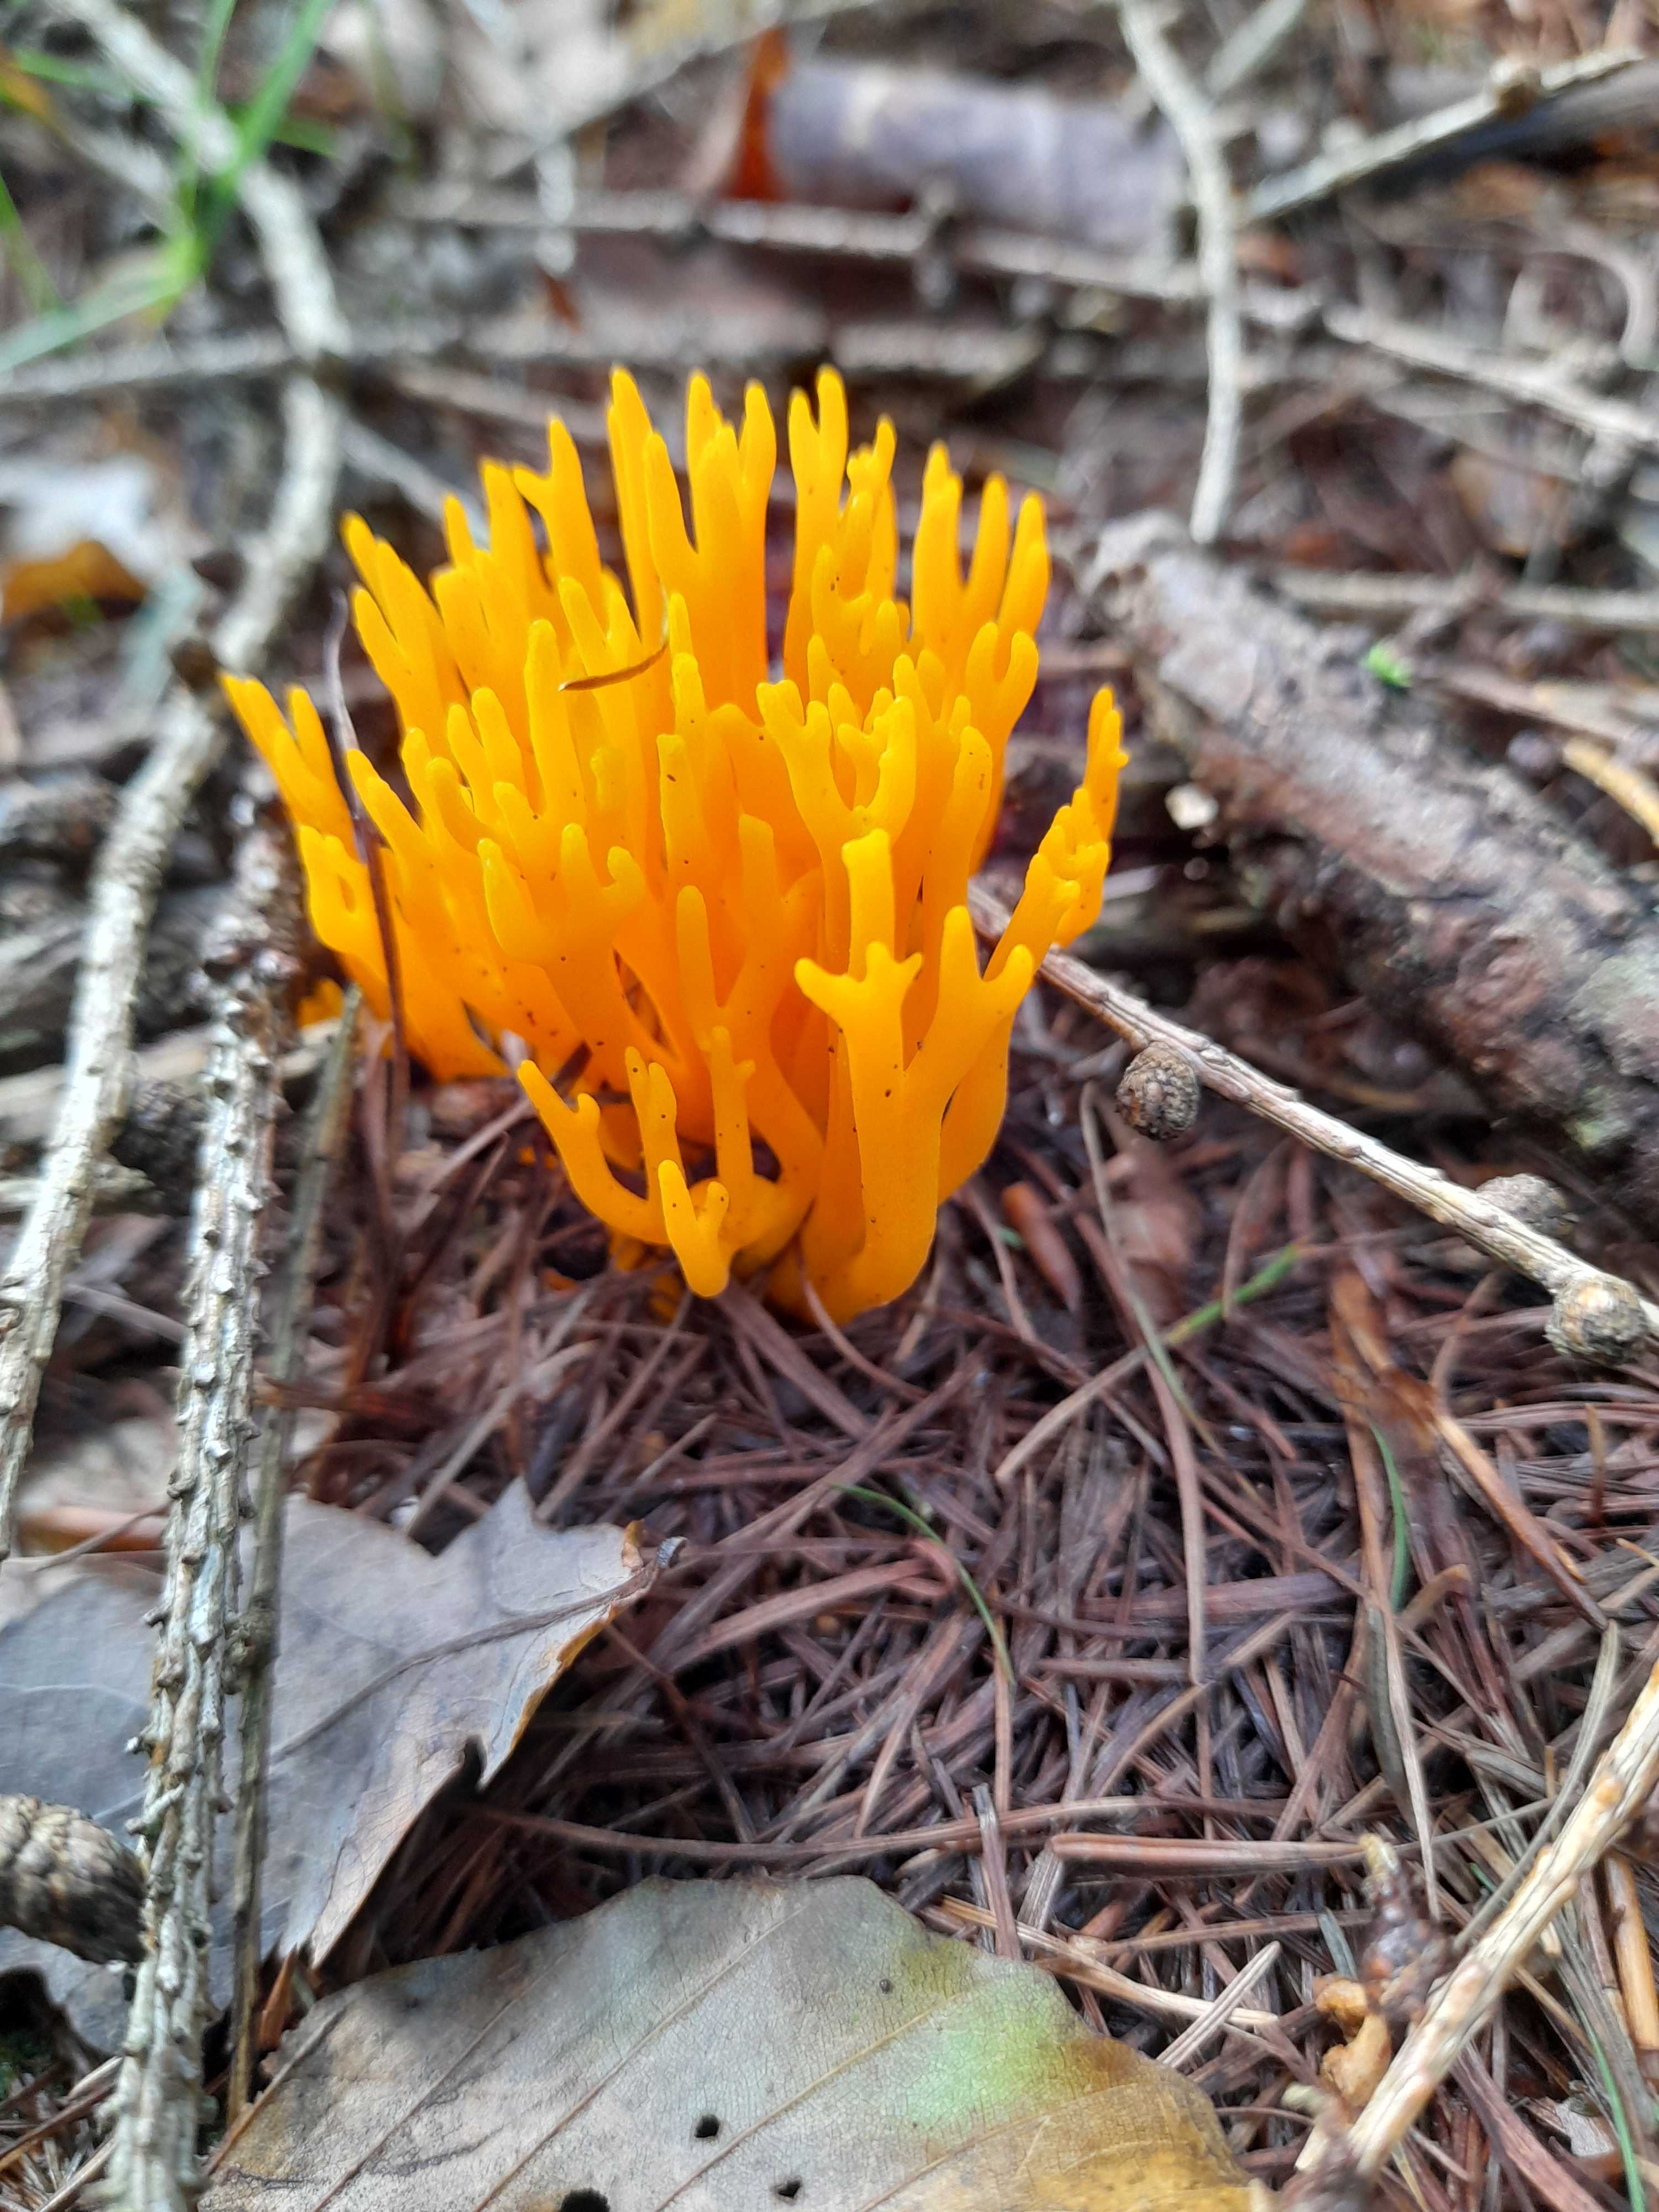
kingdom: Fungi
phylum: Basidiomycota
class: Dacrymycetes
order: Dacrymycetales
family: Dacrymycetaceae
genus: Calocera
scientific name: Calocera viscosa
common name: almindelig guldgaffel
